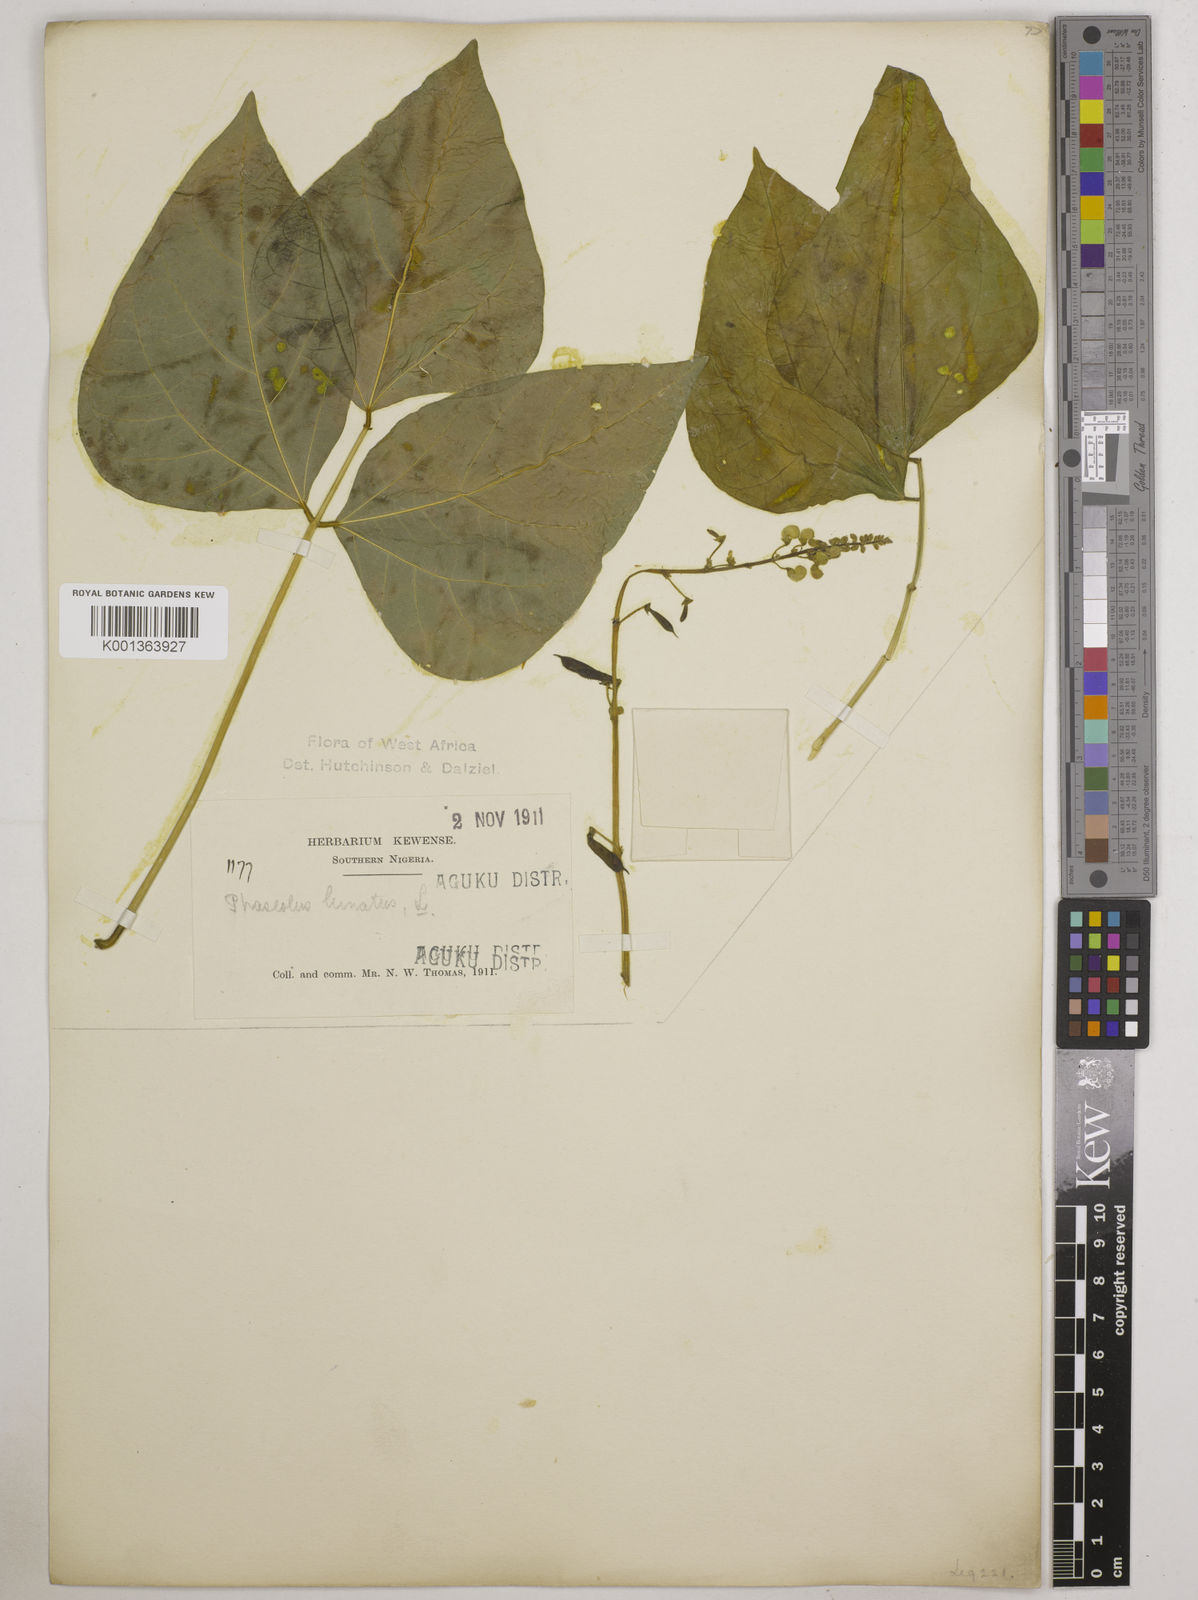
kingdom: Plantae
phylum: Tracheophyta
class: Magnoliopsida
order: Fabales
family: Fabaceae
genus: Phaseolus
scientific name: Phaseolus lunatus
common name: Sieva bean
